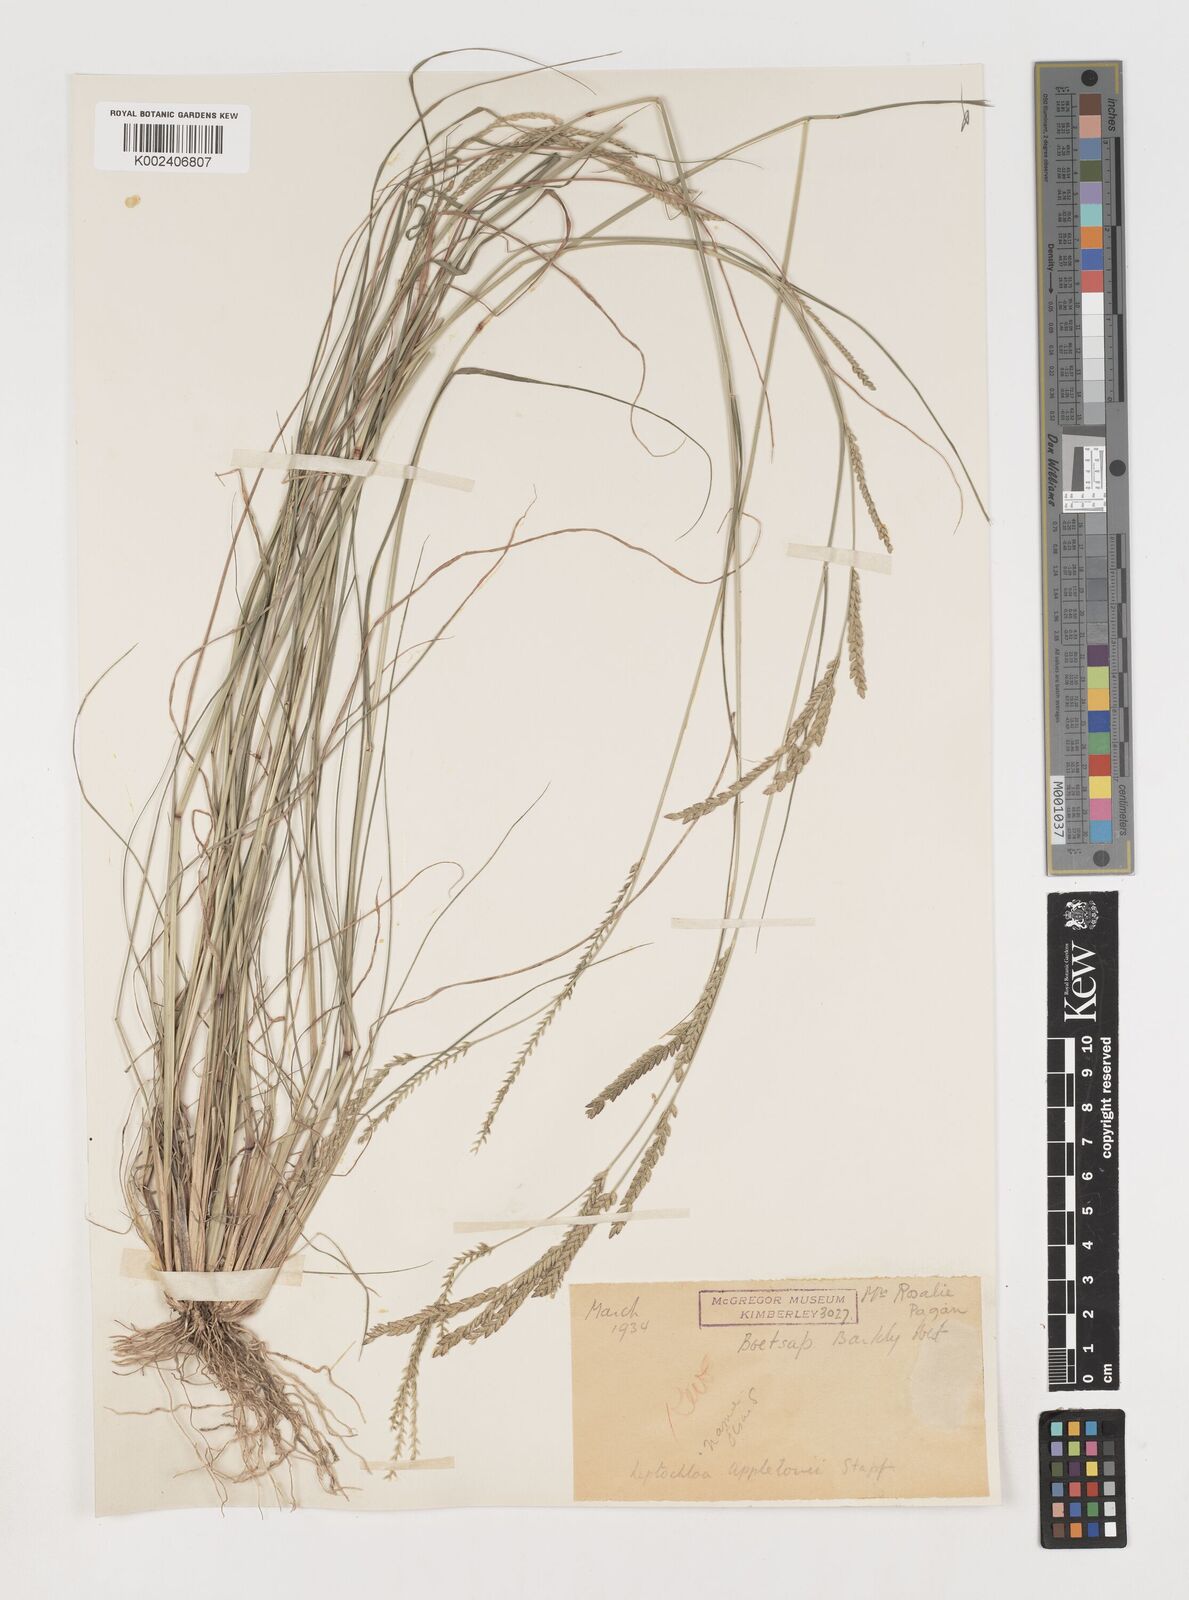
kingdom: Plantae
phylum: Tracheophyta
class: Liliopsida
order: Poales
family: Poaceae
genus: Disakisperma
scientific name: Disakisperma yemenicum
